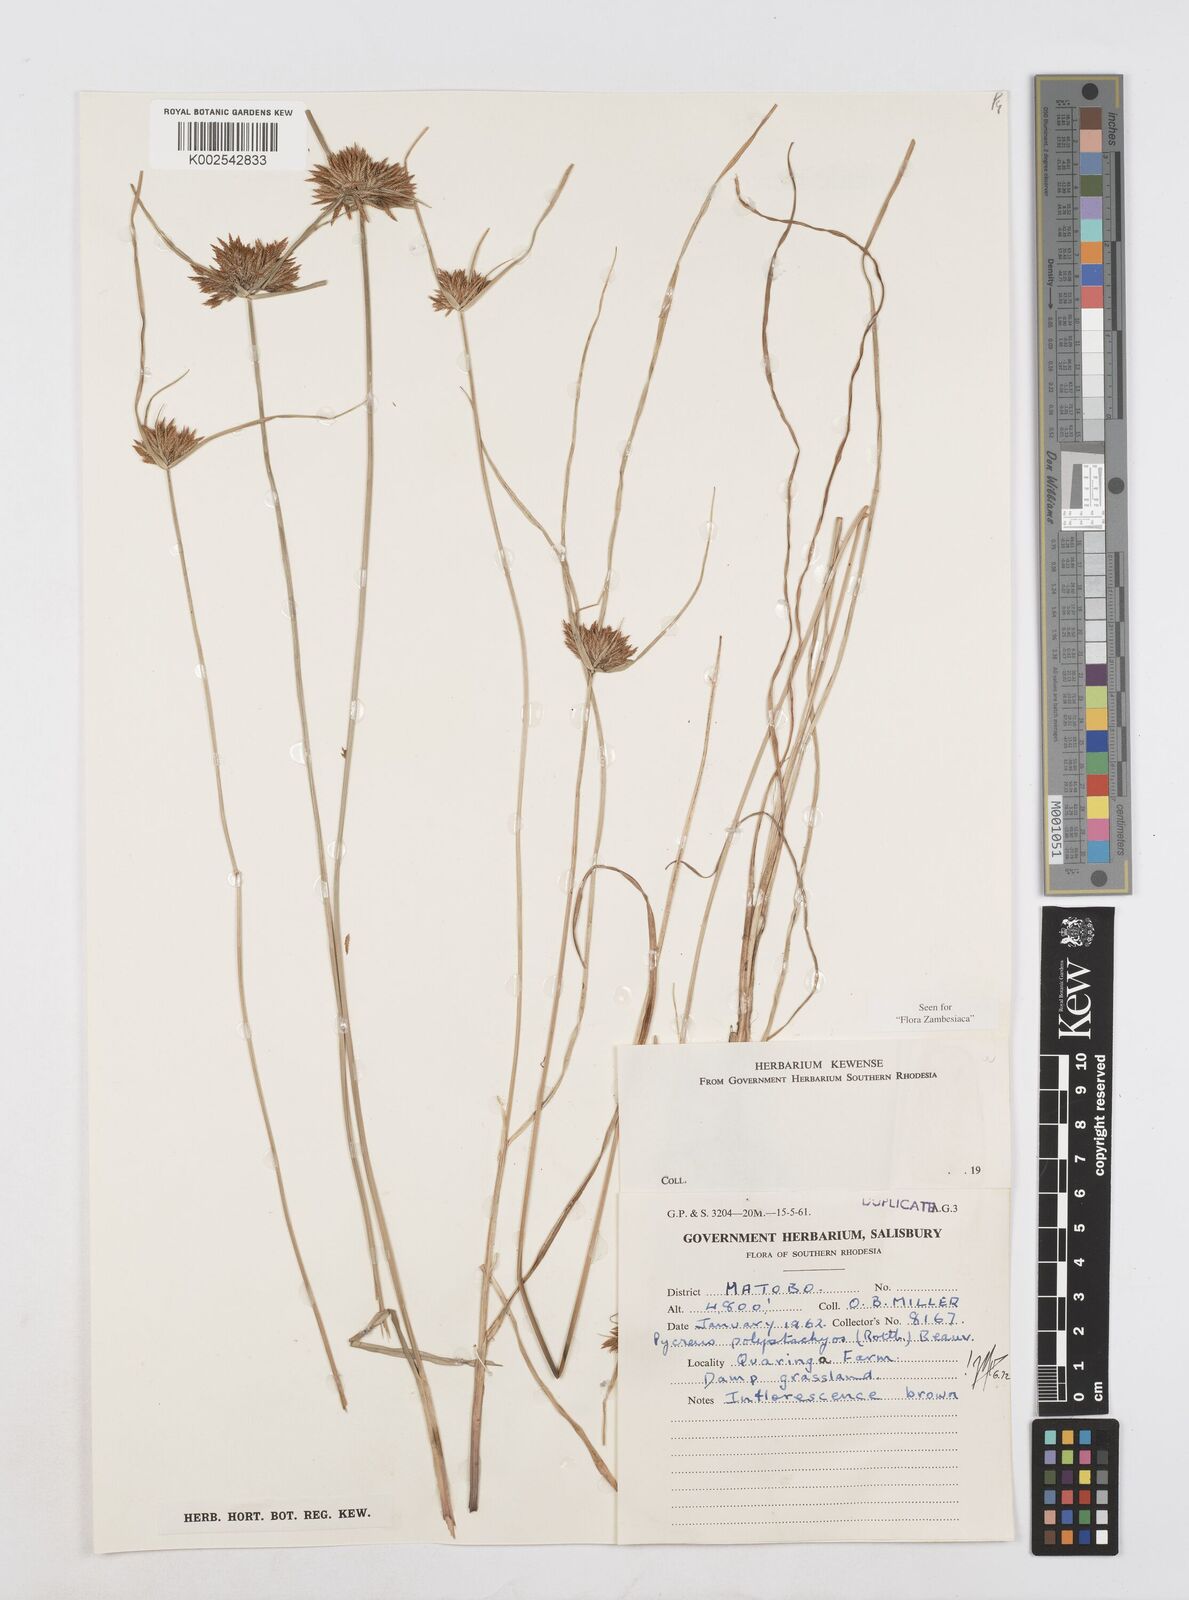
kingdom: Plantae
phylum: Tracheophyta
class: Liliopsida
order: Poales
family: Cyperaceae
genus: Cyperus
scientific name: Cyperus polystachyos
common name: Bunchy flat sedge
